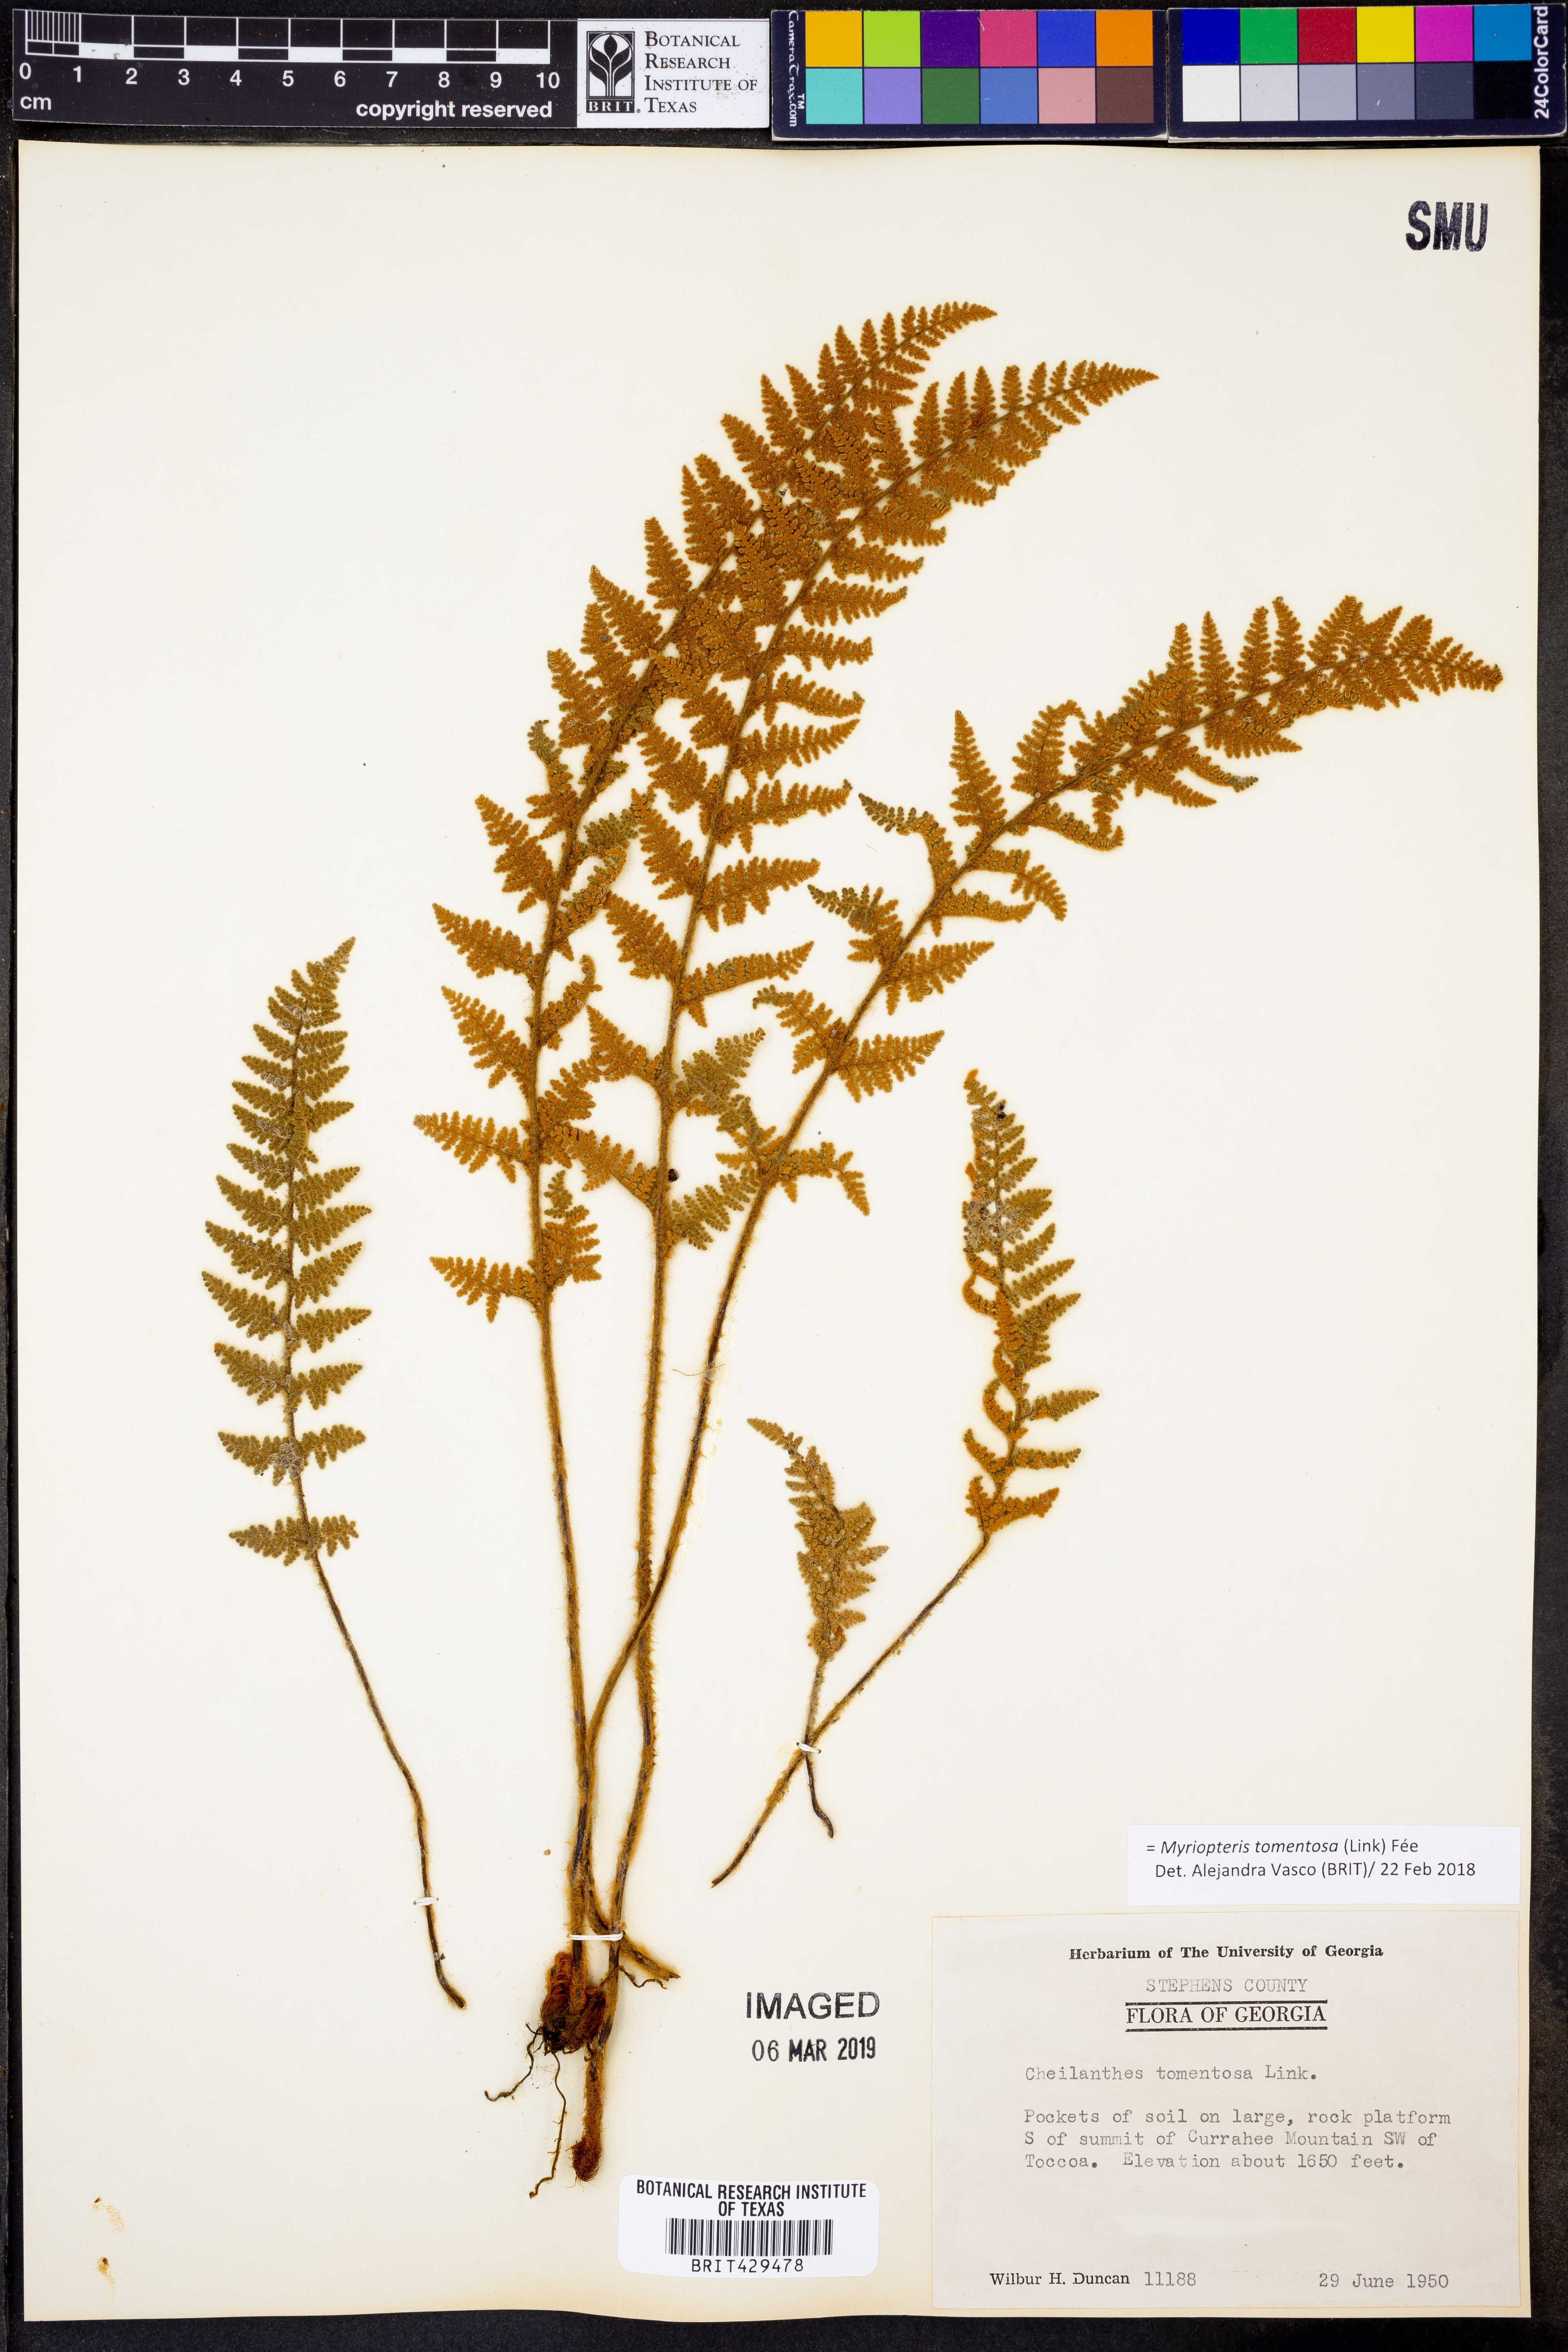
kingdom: Plantae
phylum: Tracheophyta
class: Polypodiopsida
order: Polypodiales
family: Pteridaceae
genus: Myriopteris
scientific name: Myriopteris tomentosa
